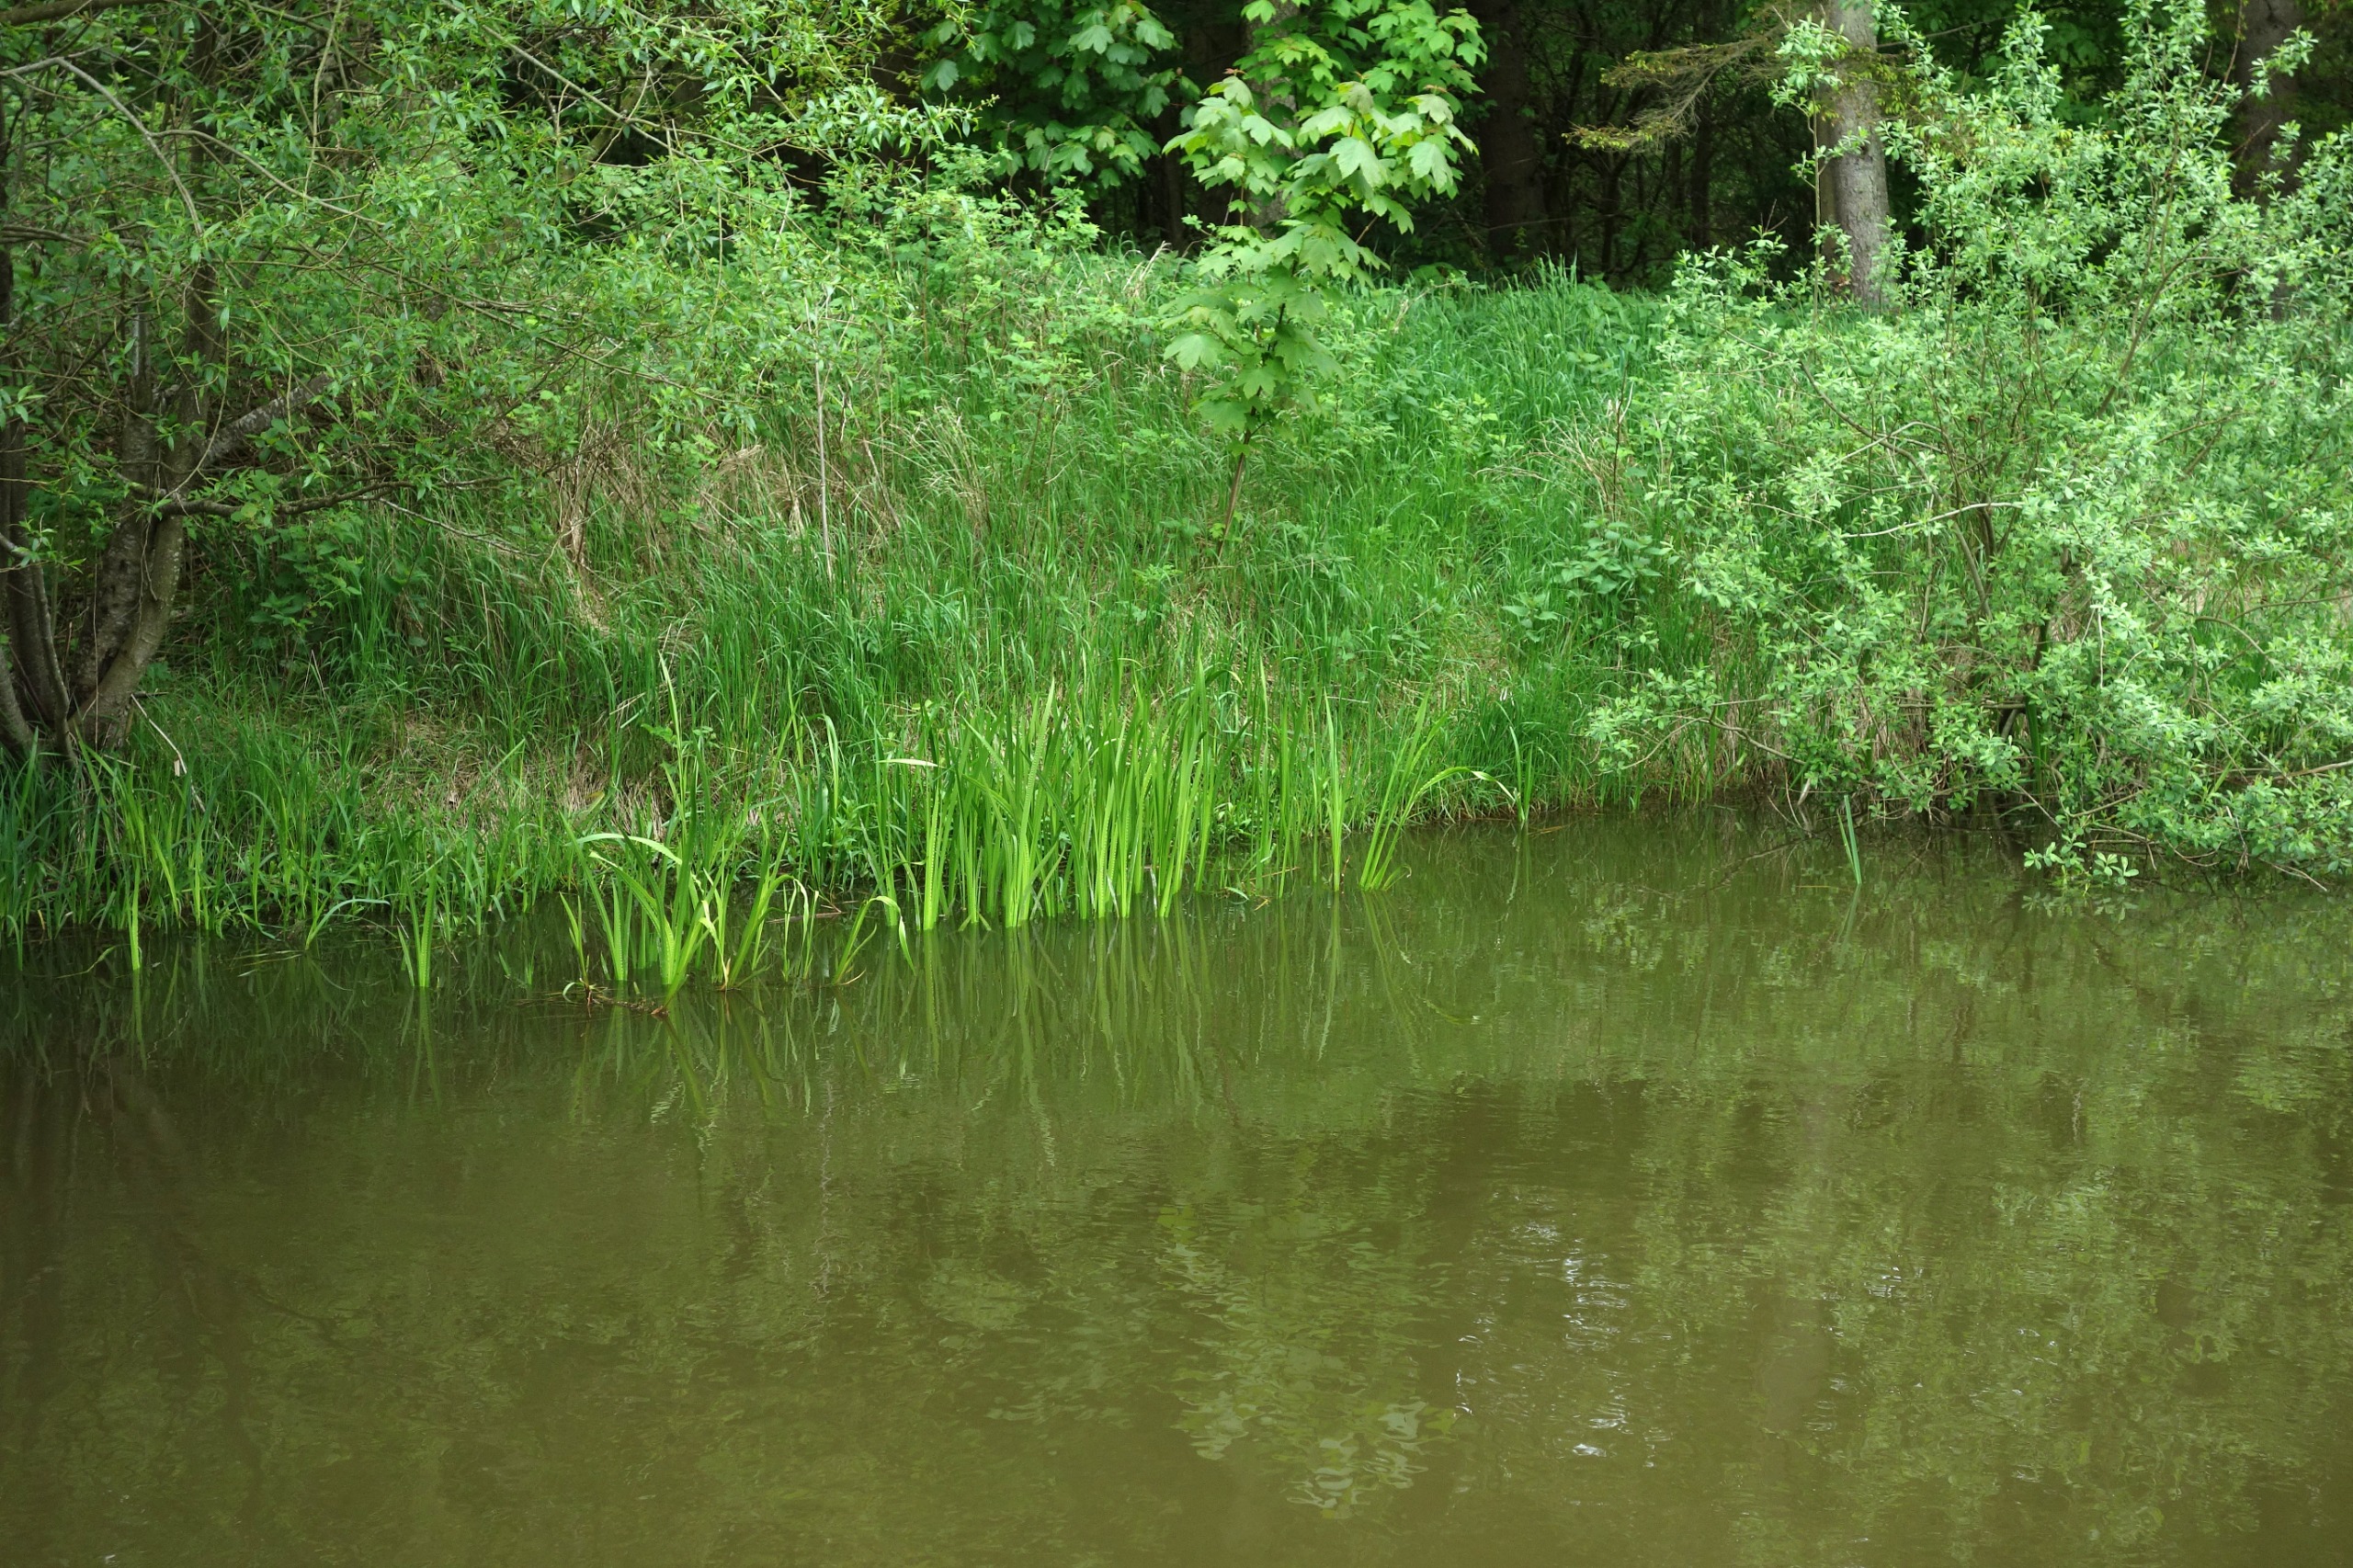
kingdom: Plantae
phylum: Tracheophyta
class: Liliopsida
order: Acorales
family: Acoraceae
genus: Acorus
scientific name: Acorus calamus
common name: Kalmus
